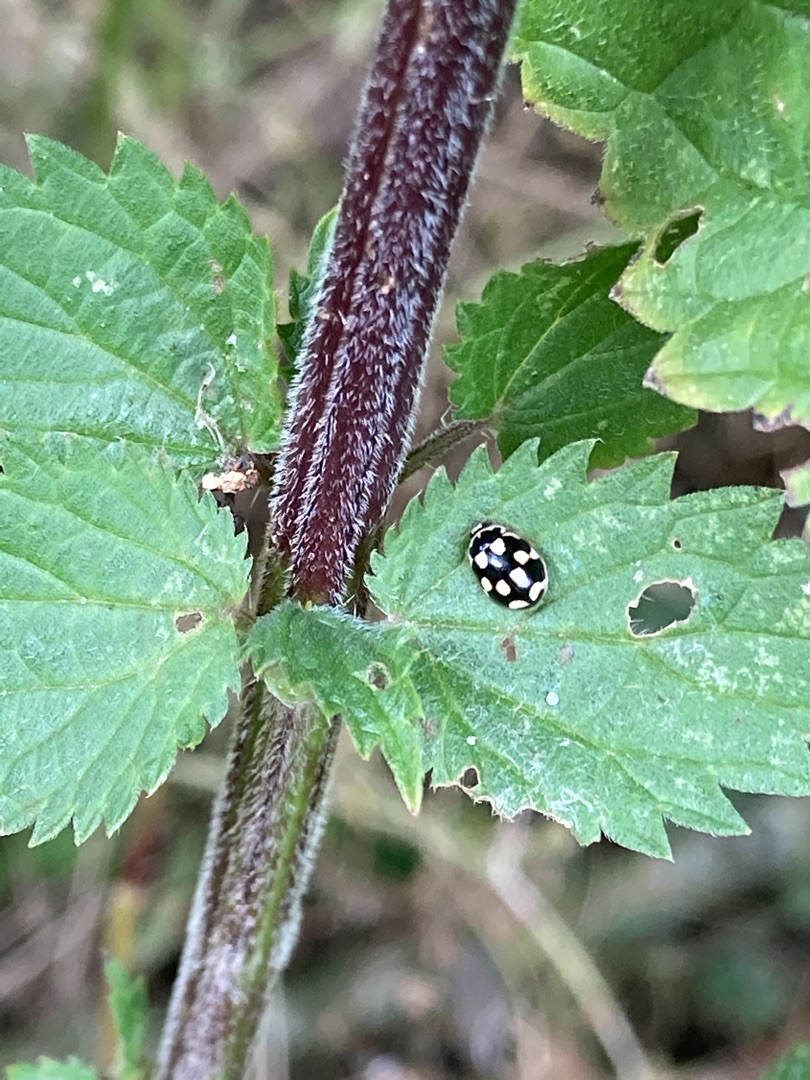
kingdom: Animalia
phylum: Arthropoda
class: Insecta
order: Coleoptera
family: Coccinellidae
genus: Propylaea
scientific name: Propylaea quatuordecimpunctata
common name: Skakbræt
